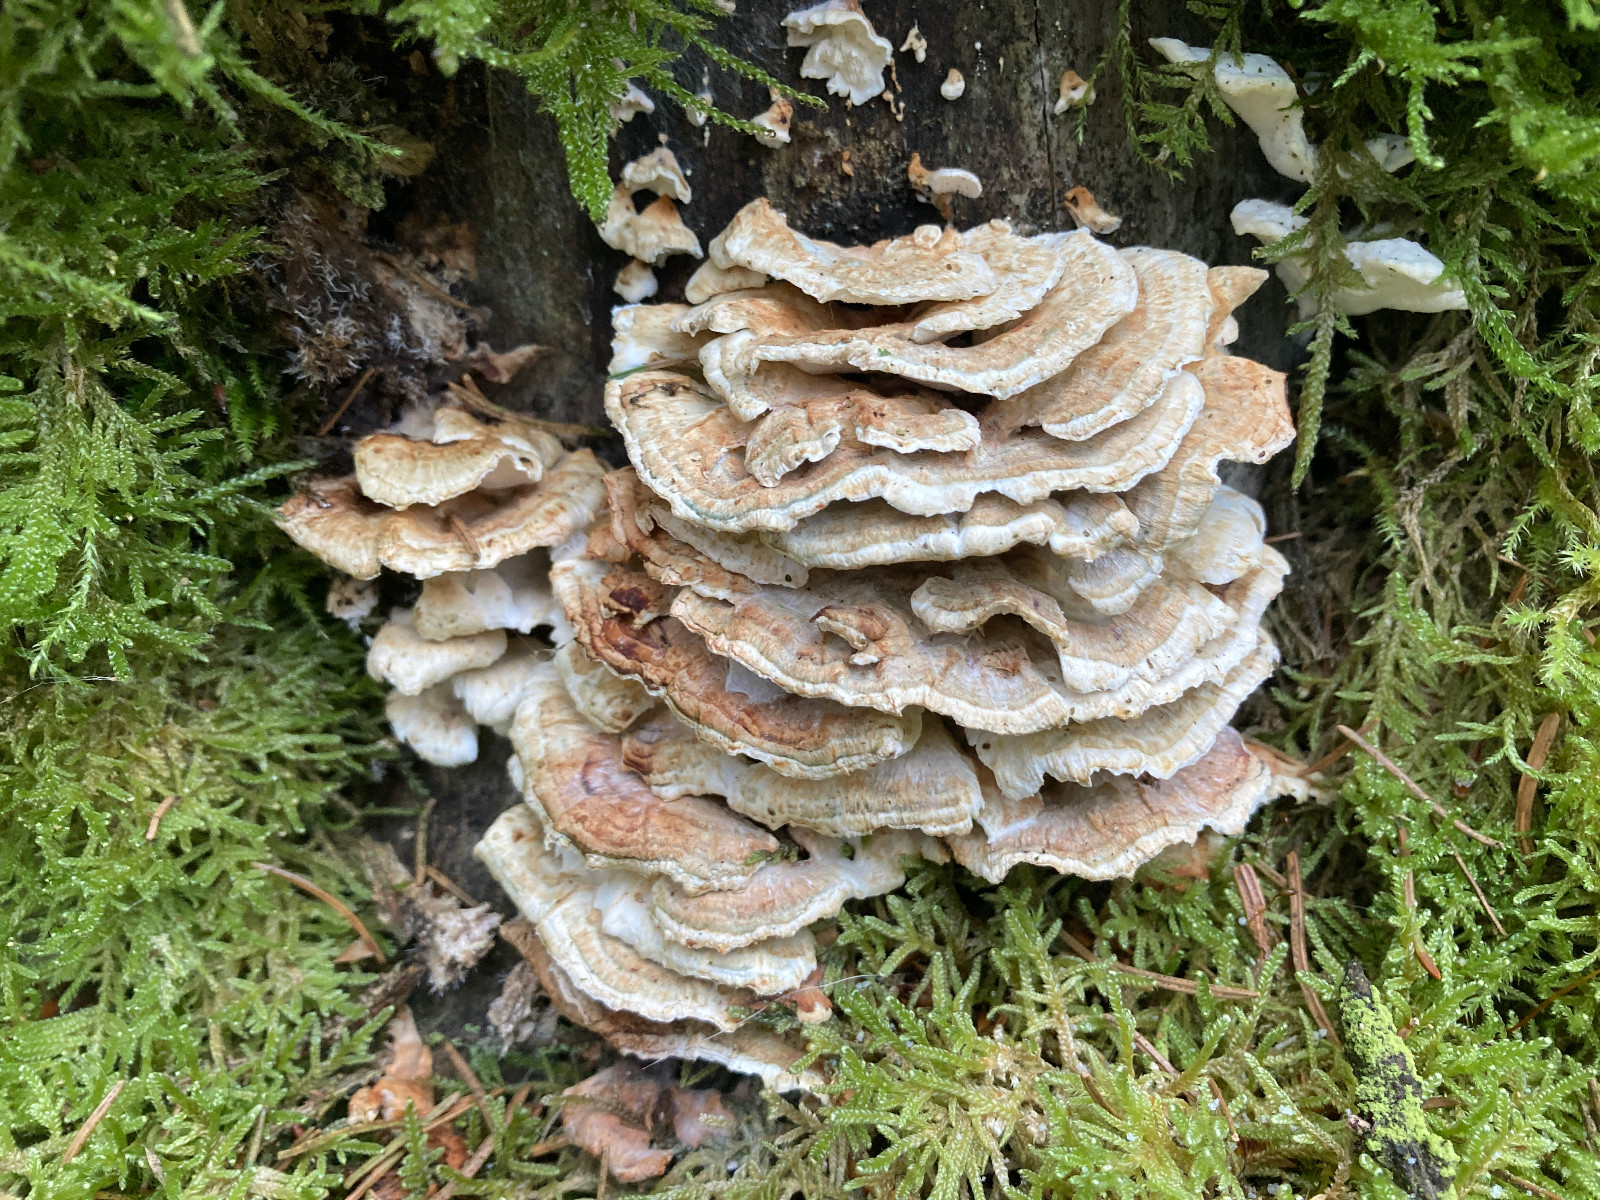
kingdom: Fungi
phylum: Basidiomycota
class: Agaricomycetes
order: Polyporales
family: Dacryobolaceae
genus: Oligoporus
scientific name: Oligoporus wakefieldiae
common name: række-kødporesvamp
